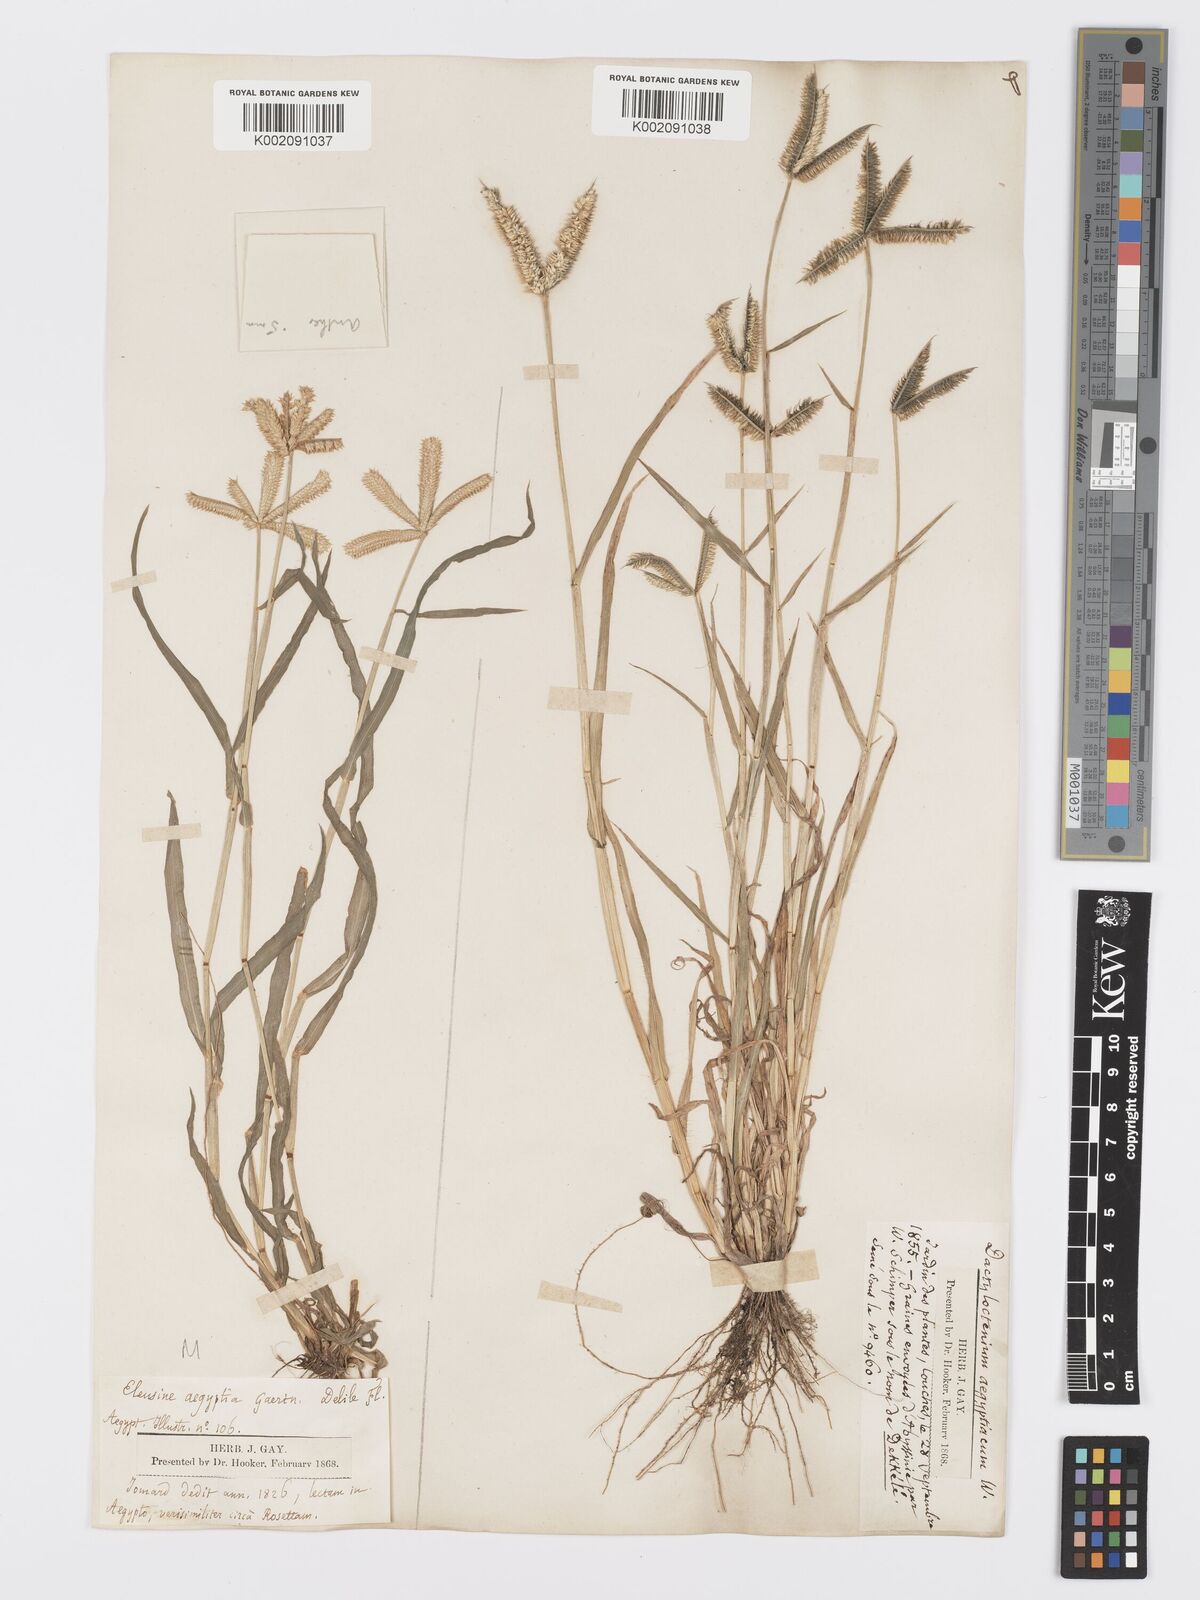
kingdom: Plantae
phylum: Tracheophyta
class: Liliopsida
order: Poales
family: Poaceae
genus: Dactyloctenium
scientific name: Dactyloctenium aegyptium
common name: Egyptian grass
